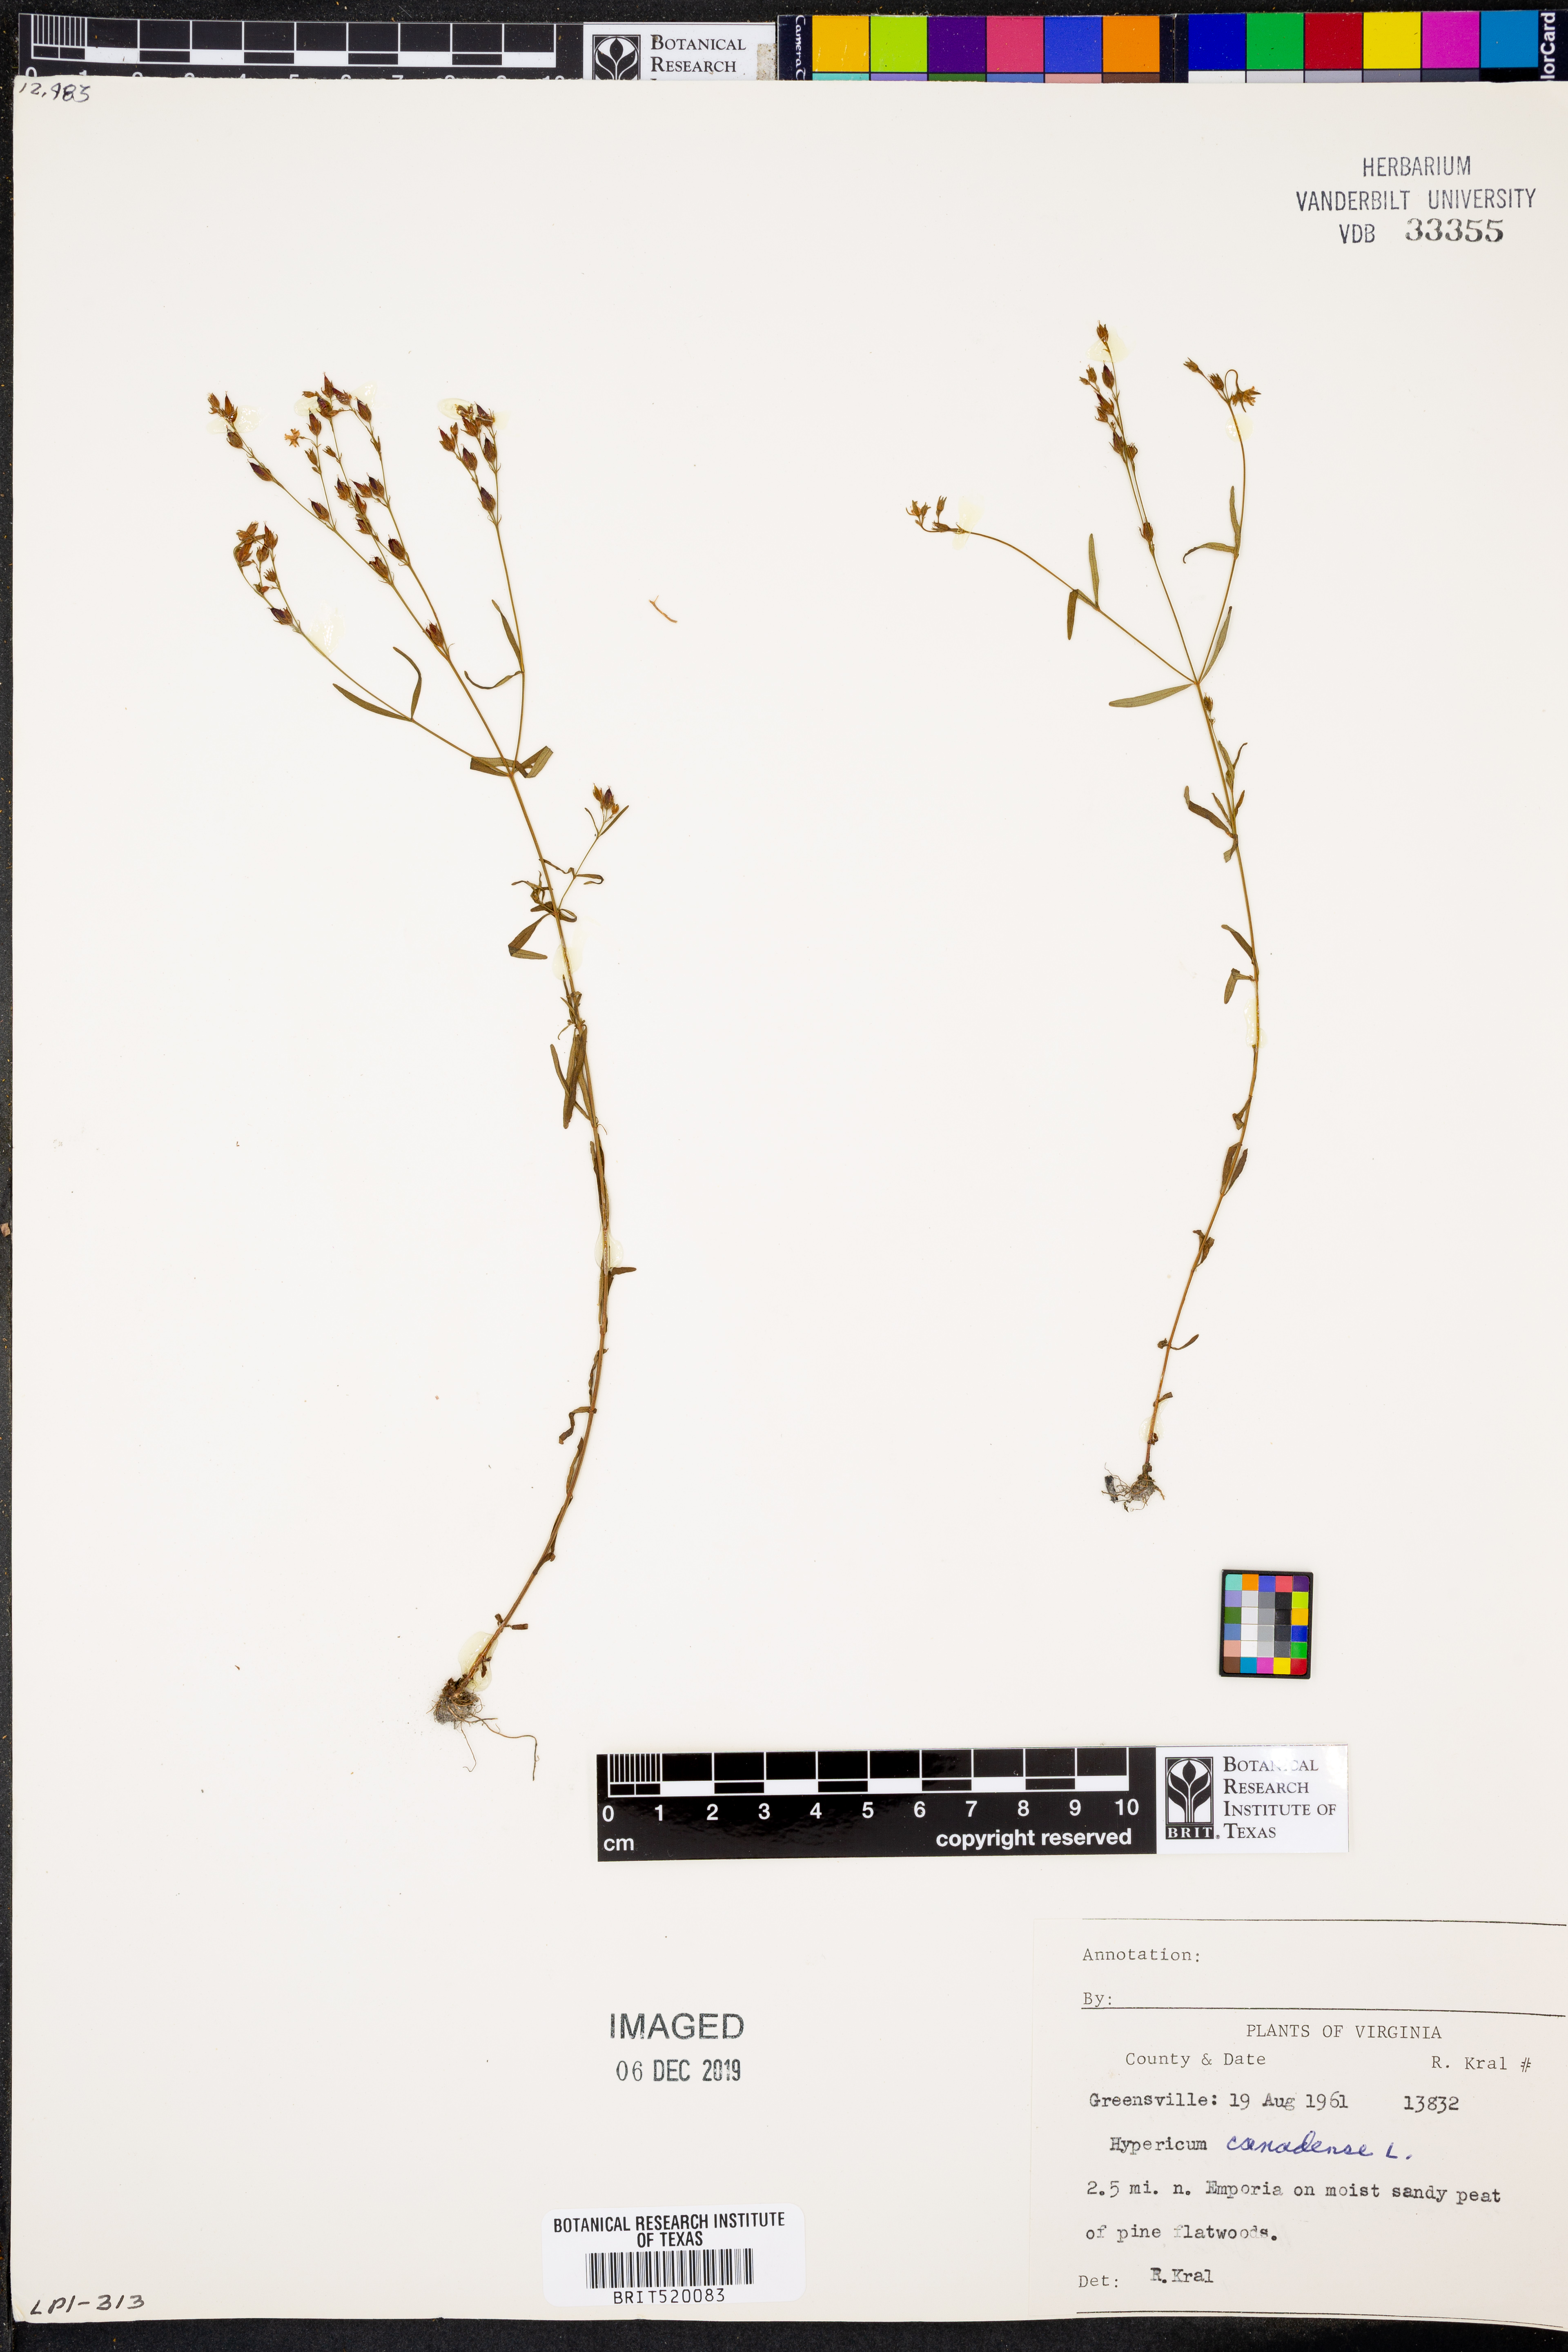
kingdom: Plantae
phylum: Tracheophyta
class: Magnoliopsida
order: Malpighiales
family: Hypericaceae
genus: Hypericum
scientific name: Hypericum canadense
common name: Irish st. john's-wort
